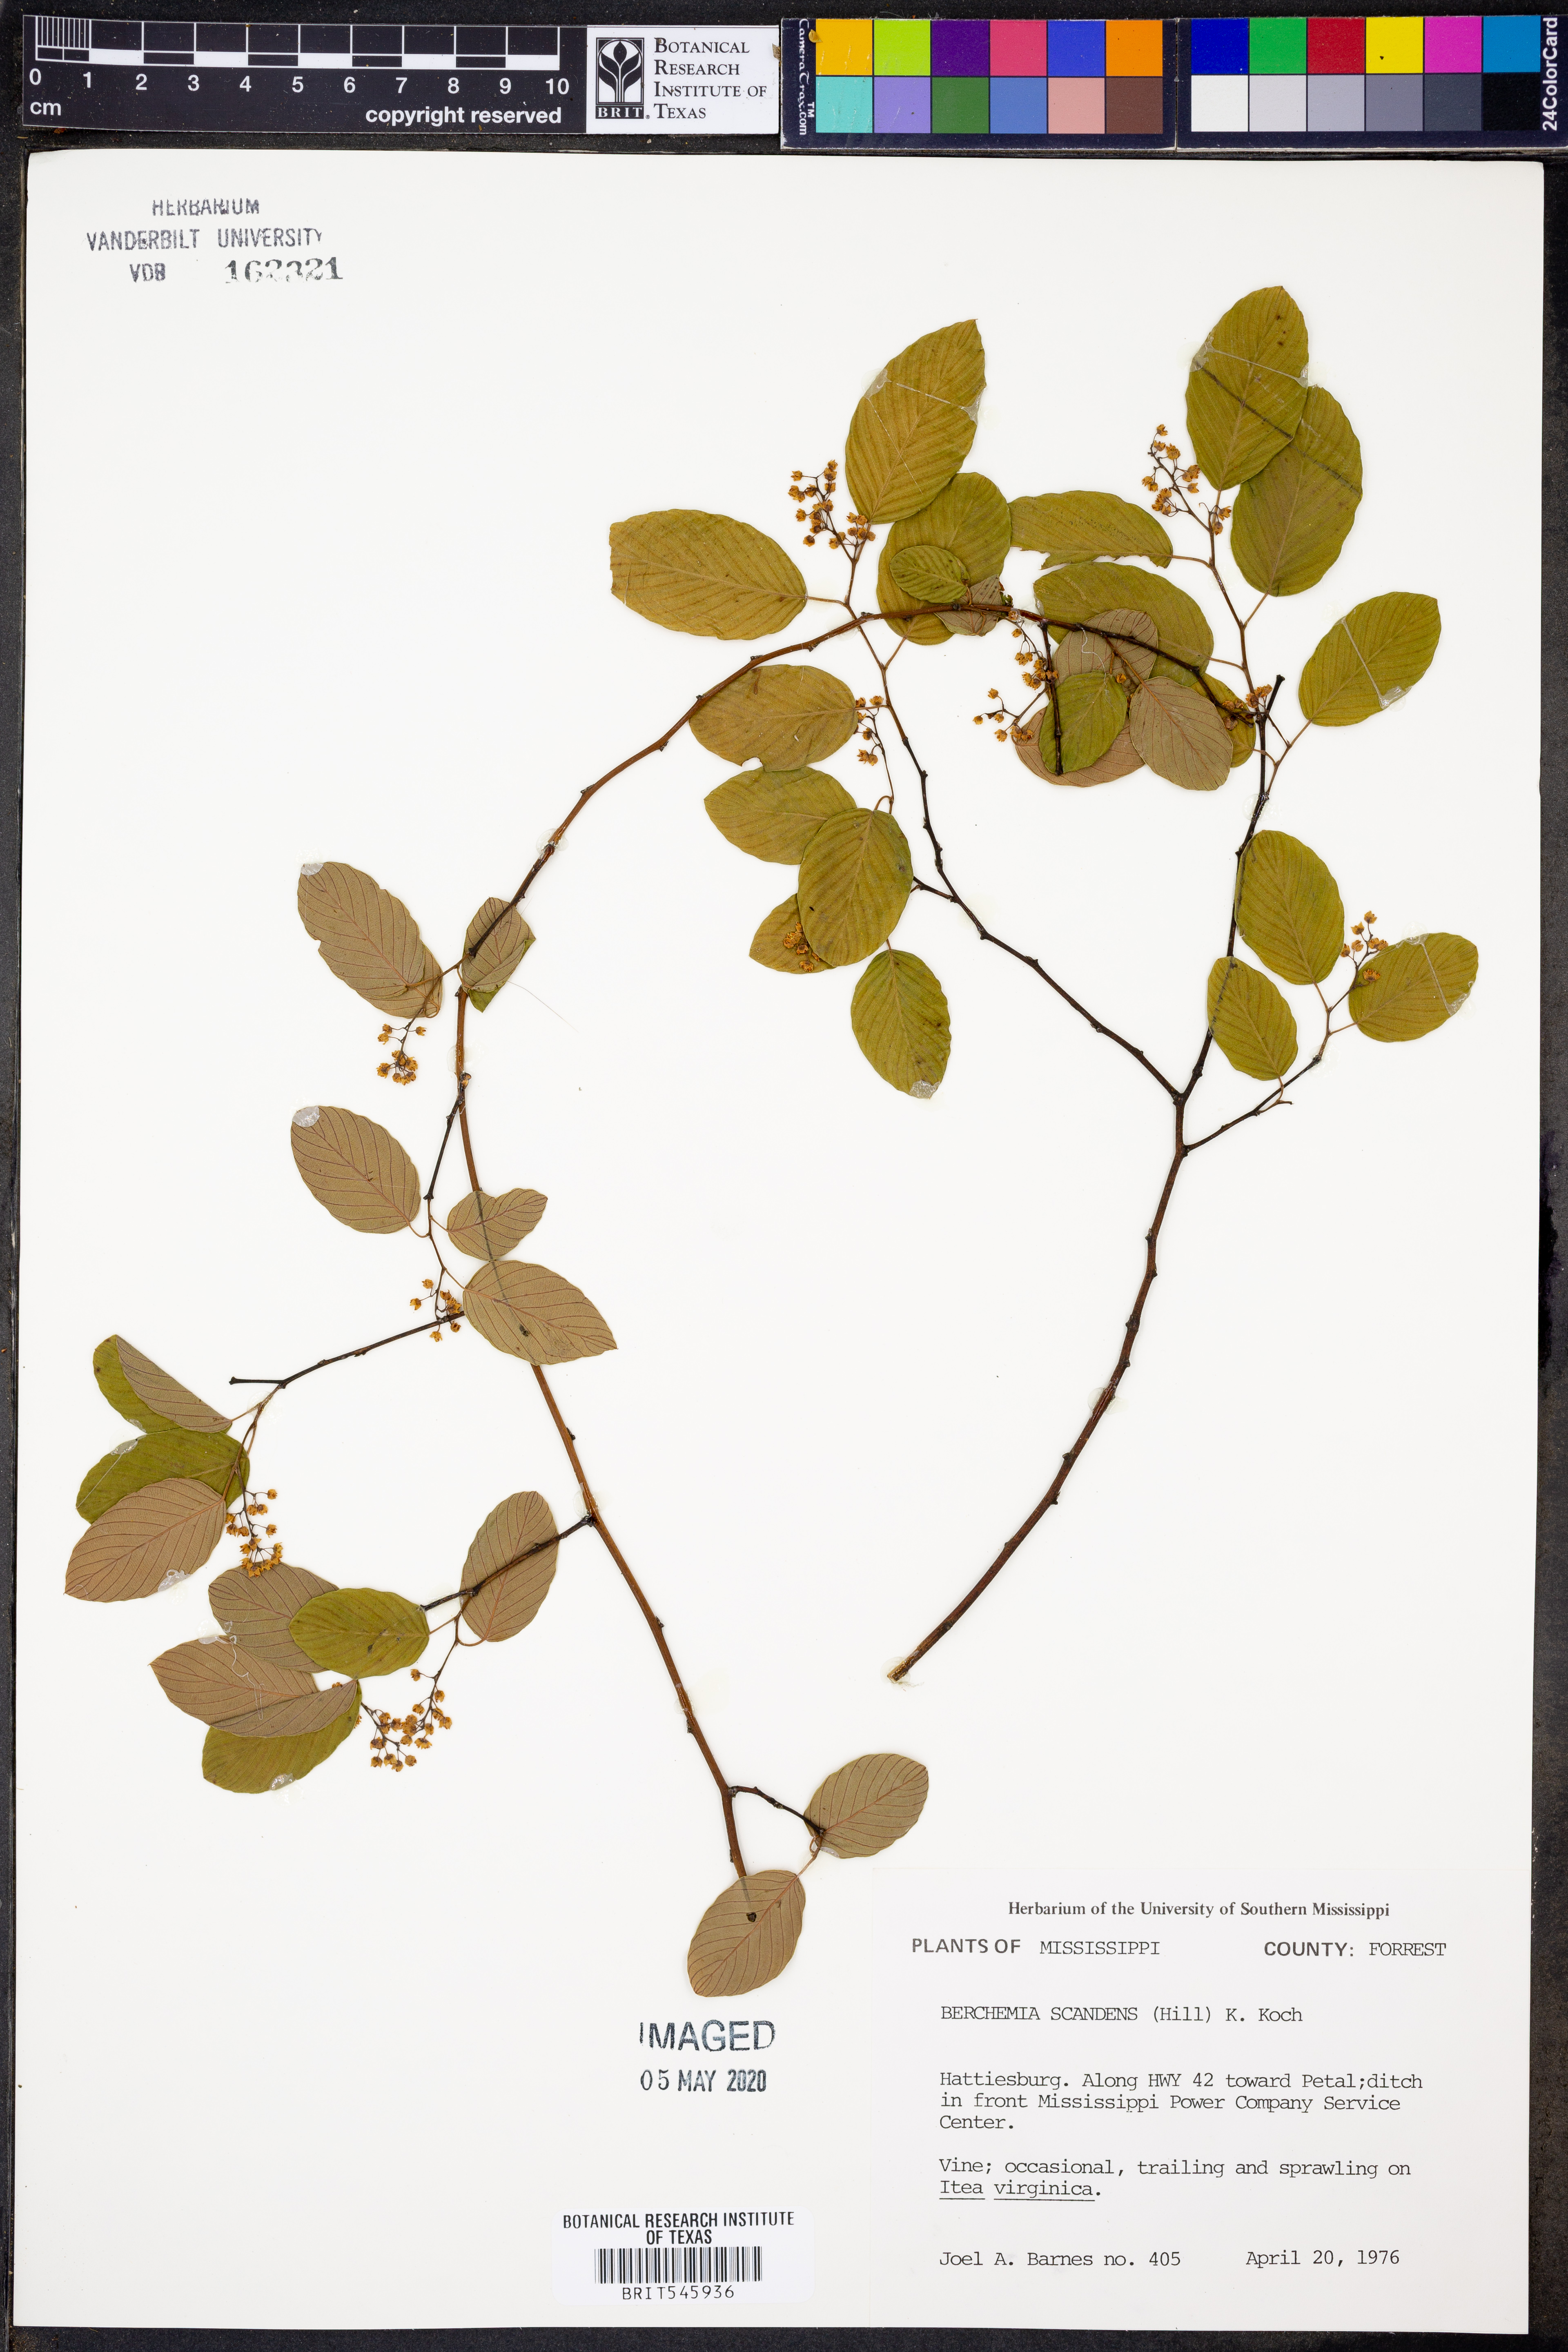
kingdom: Plantae
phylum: Tracheophyta
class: Magnoliopsida
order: Rosales
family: Rhamnaceae
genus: Berchemia
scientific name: Berchemia scandens
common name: Supplejack
